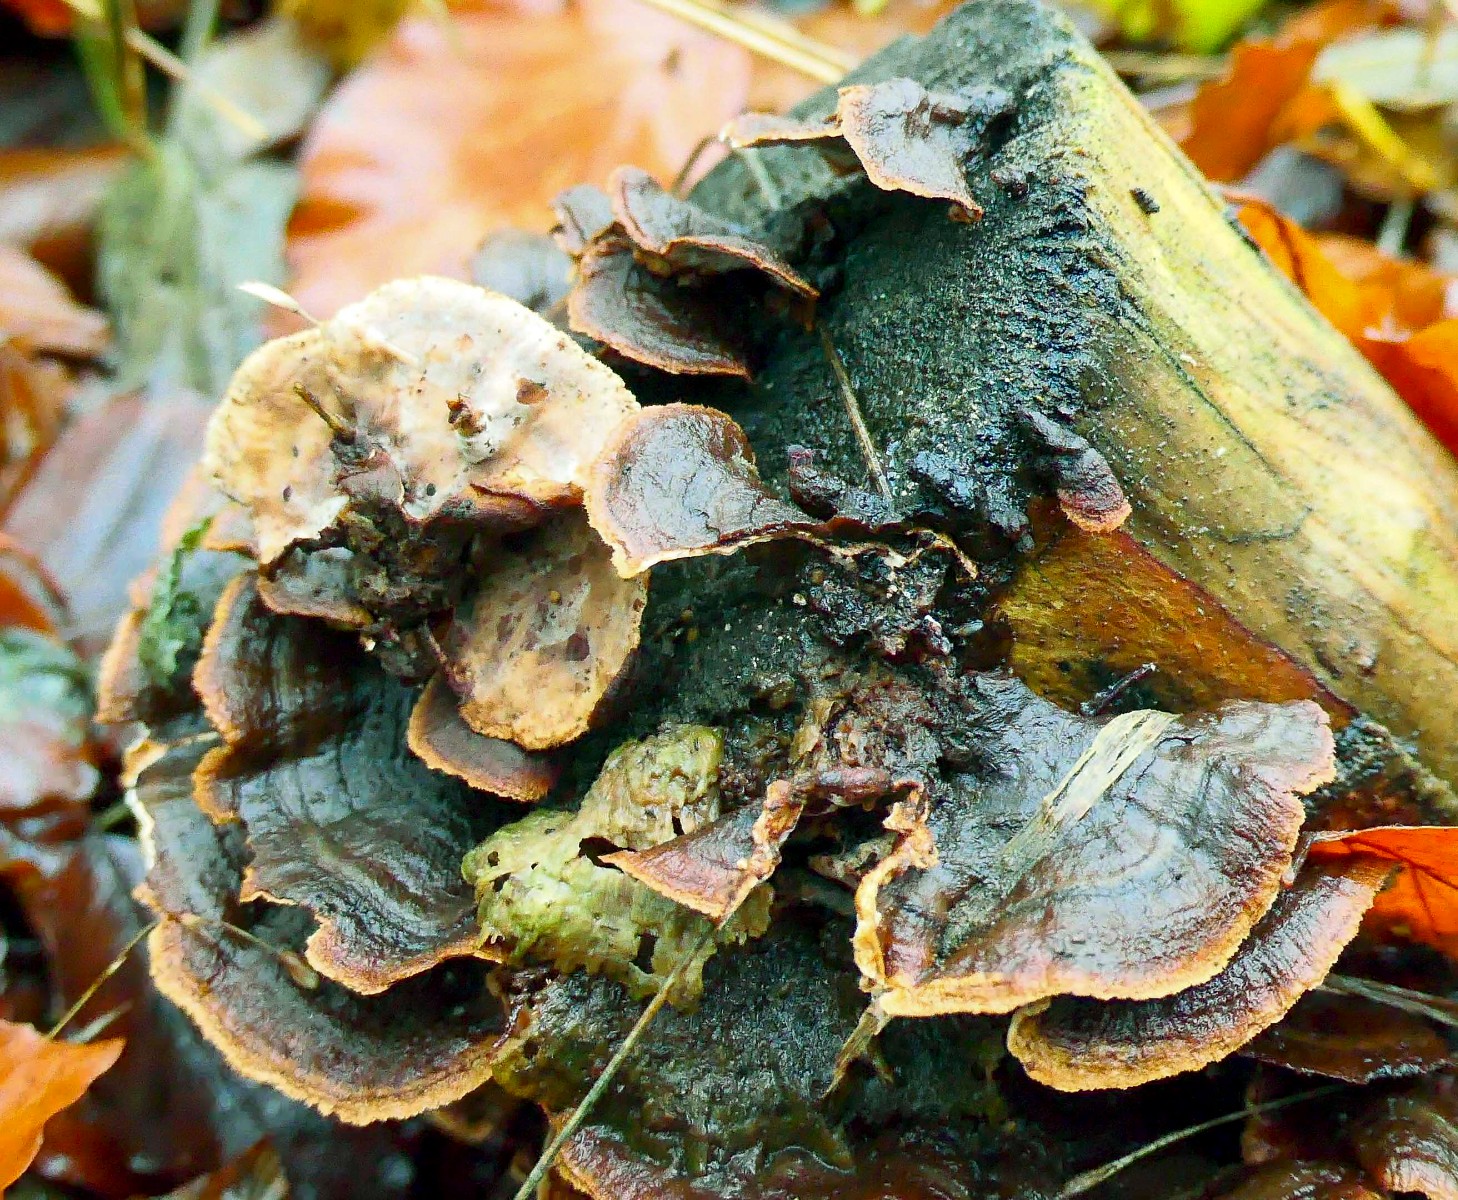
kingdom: Fungi
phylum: Basidiomycota
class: Agaricomycetes
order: Russulales
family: Hericiaceae
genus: Laxitextum
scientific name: Laxitextum bicolor
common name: tvefarvet filtskind
